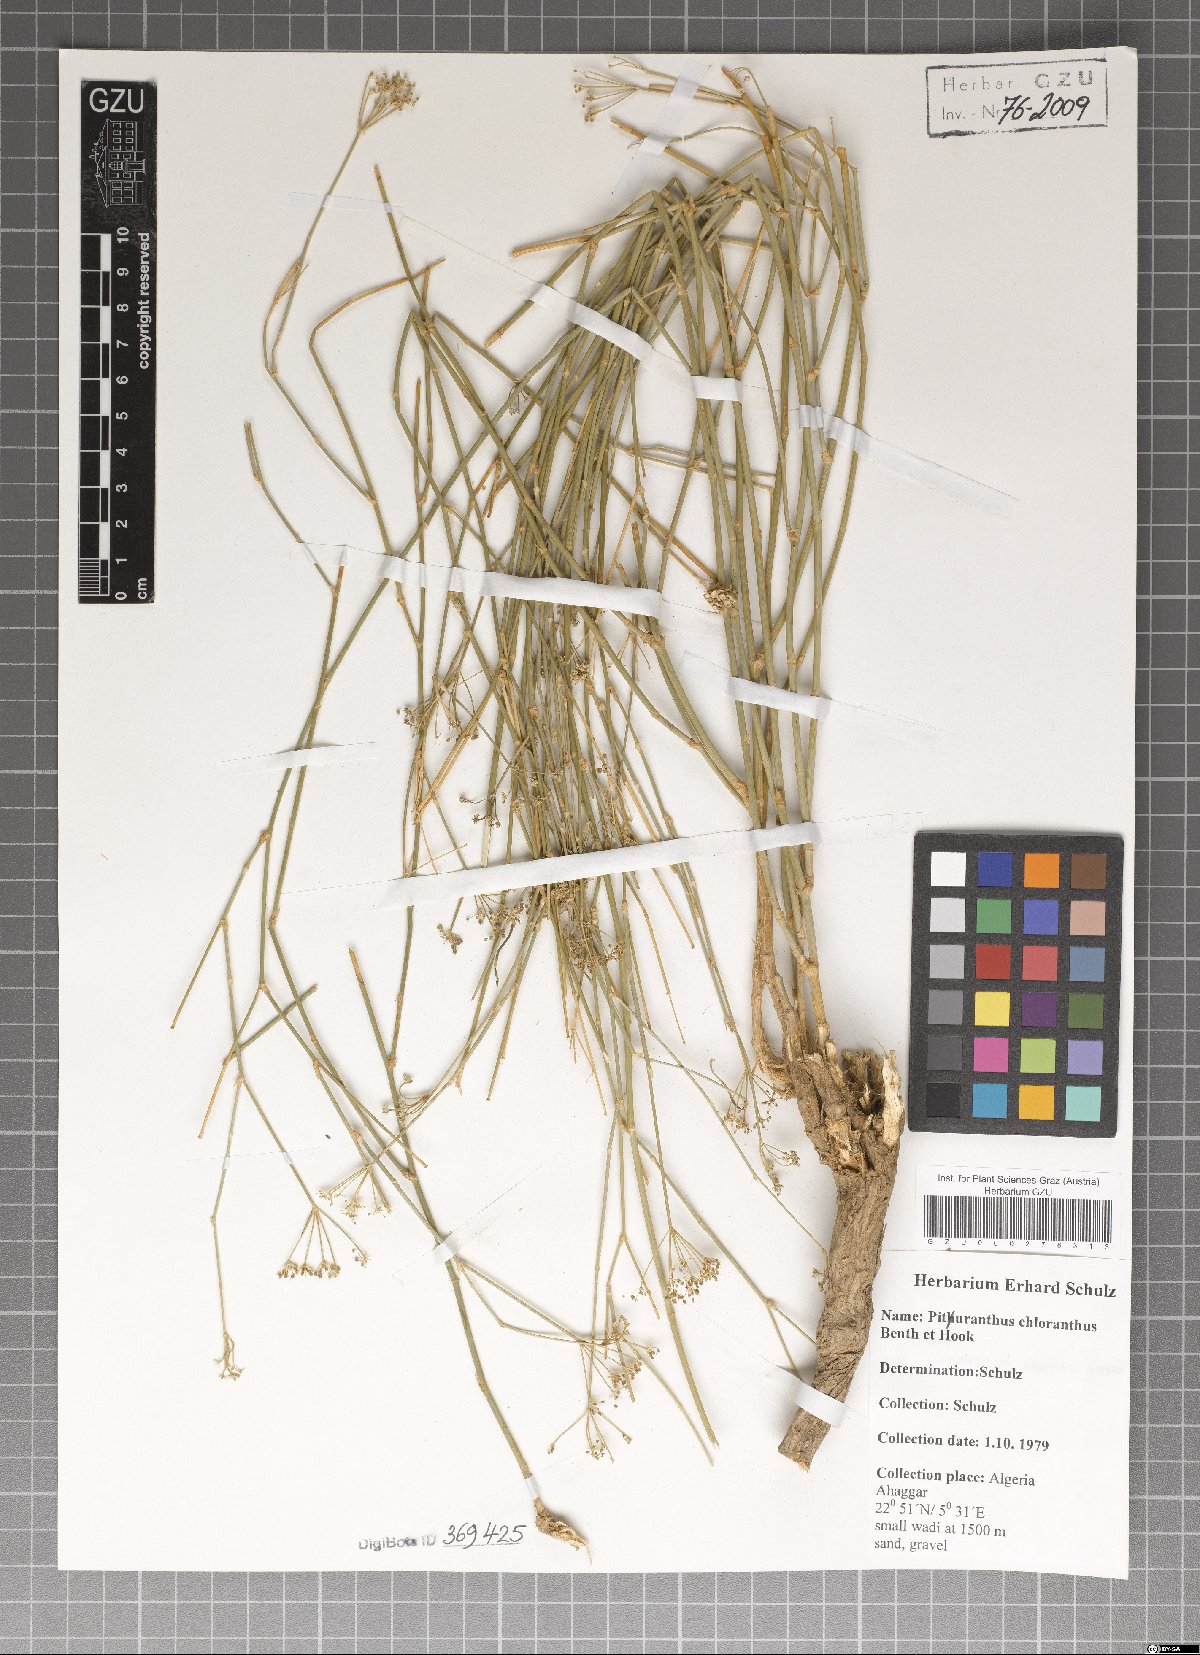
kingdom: Plantae
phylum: Tracheophyta
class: Magnoliopsida
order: Apiales
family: Apiaceae
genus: Deverra
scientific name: Deverra denudata
